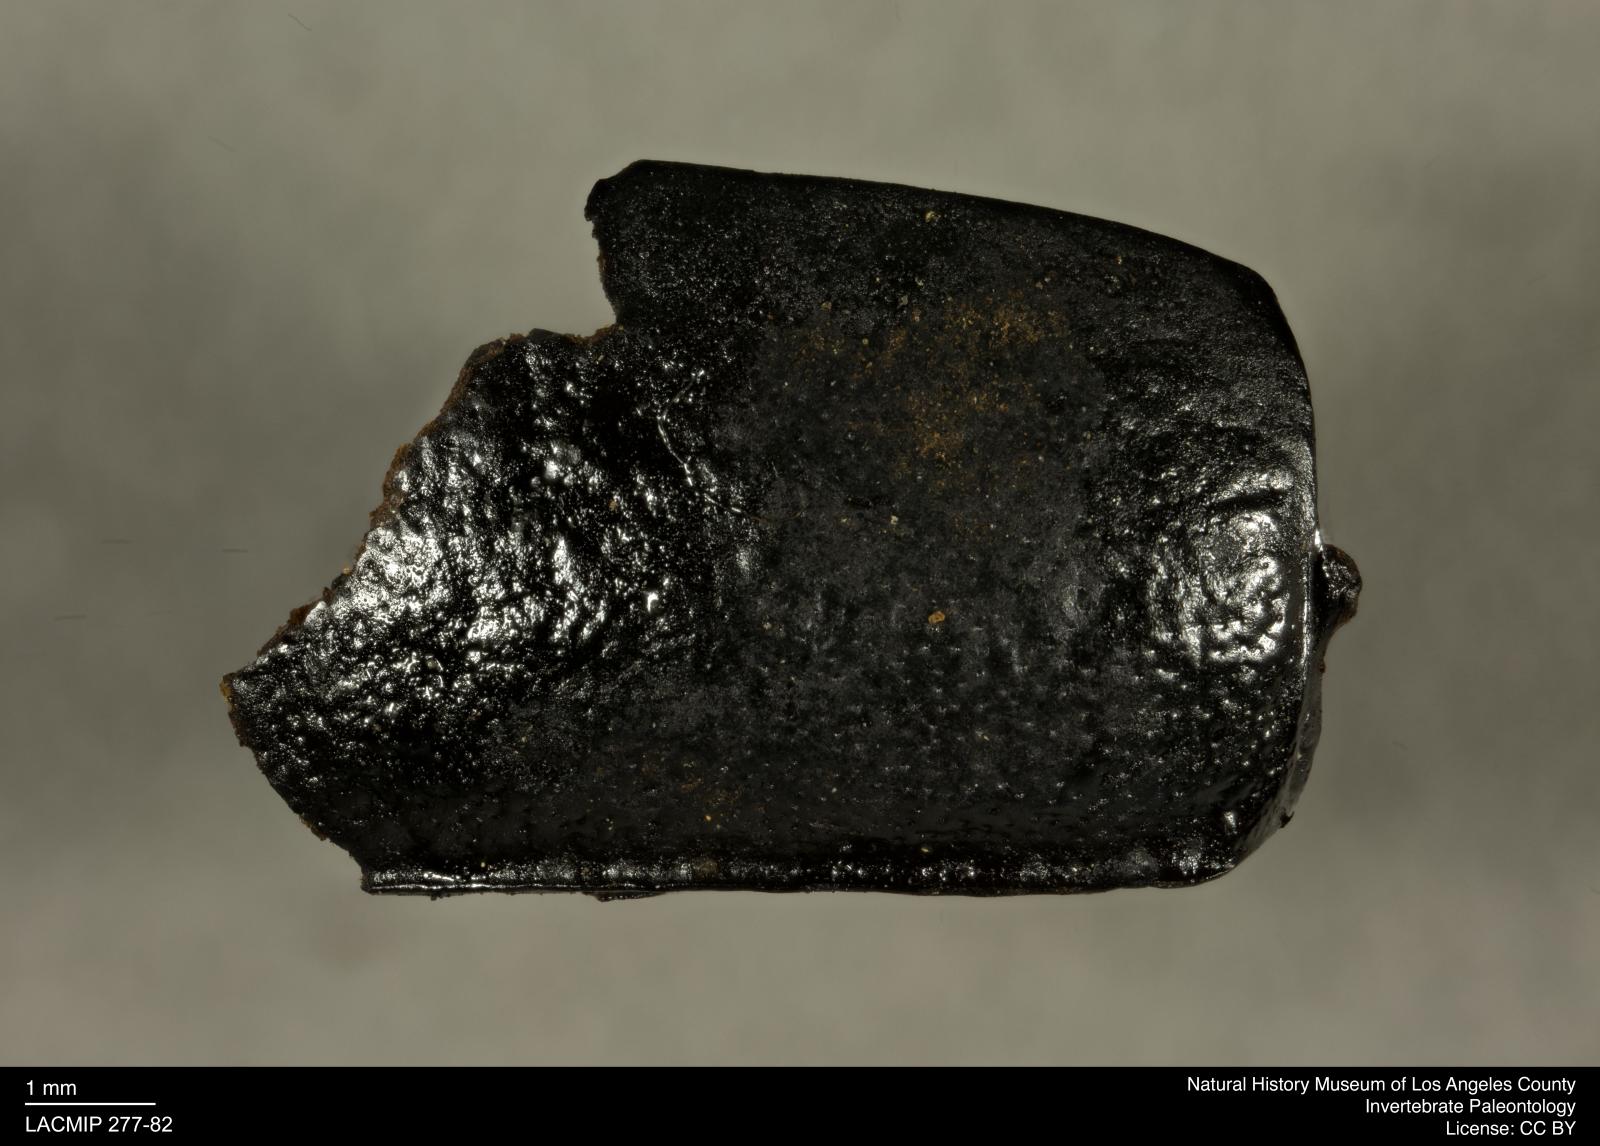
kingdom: Animalia
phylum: Arthropoda
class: Insecta
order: Coleoptera
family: Tenebrionidae
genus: Coniontis
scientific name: Coniontis abdominalis
